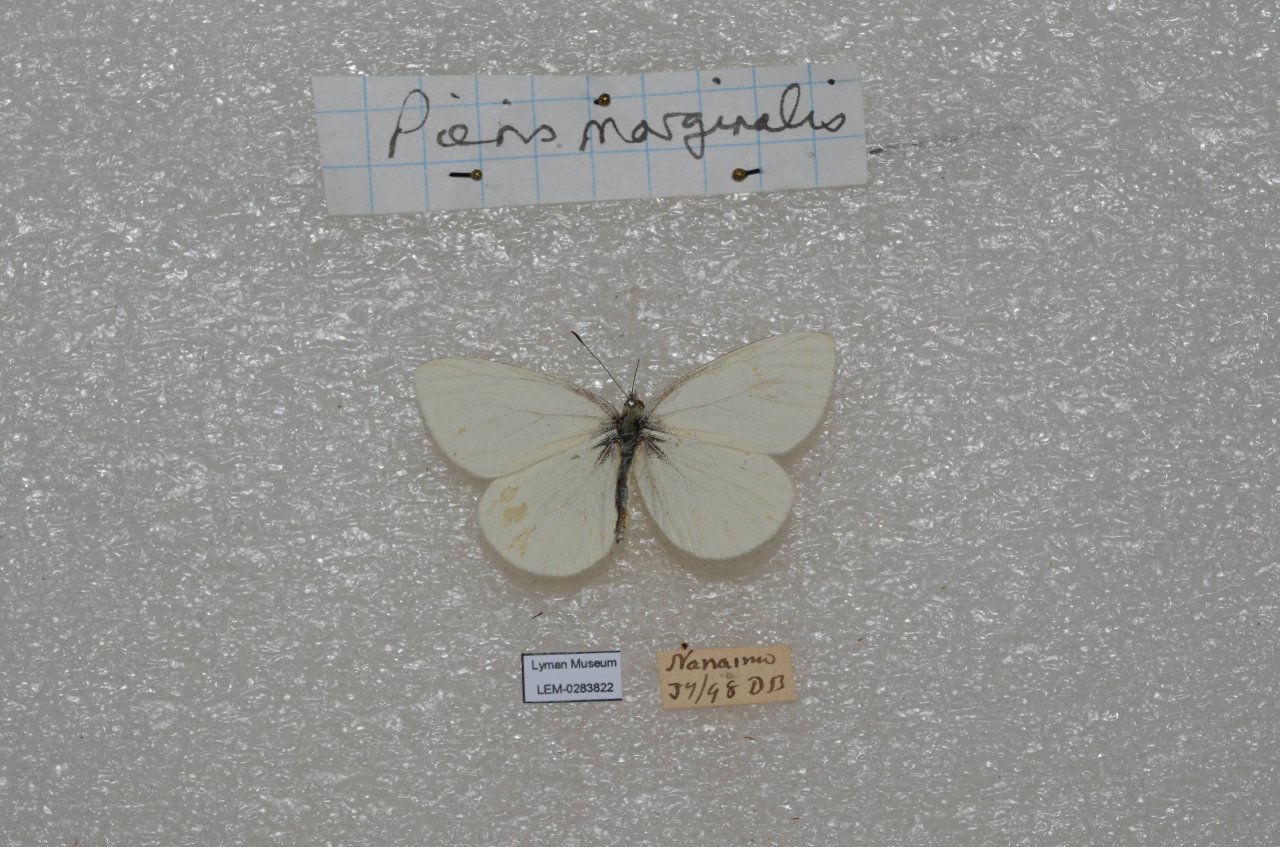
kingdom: Animalia
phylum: Arthropoda
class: Insecta
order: Lepidoptera
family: Pieridae
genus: Pieris
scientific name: Pieris marginalis
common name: Margined White
